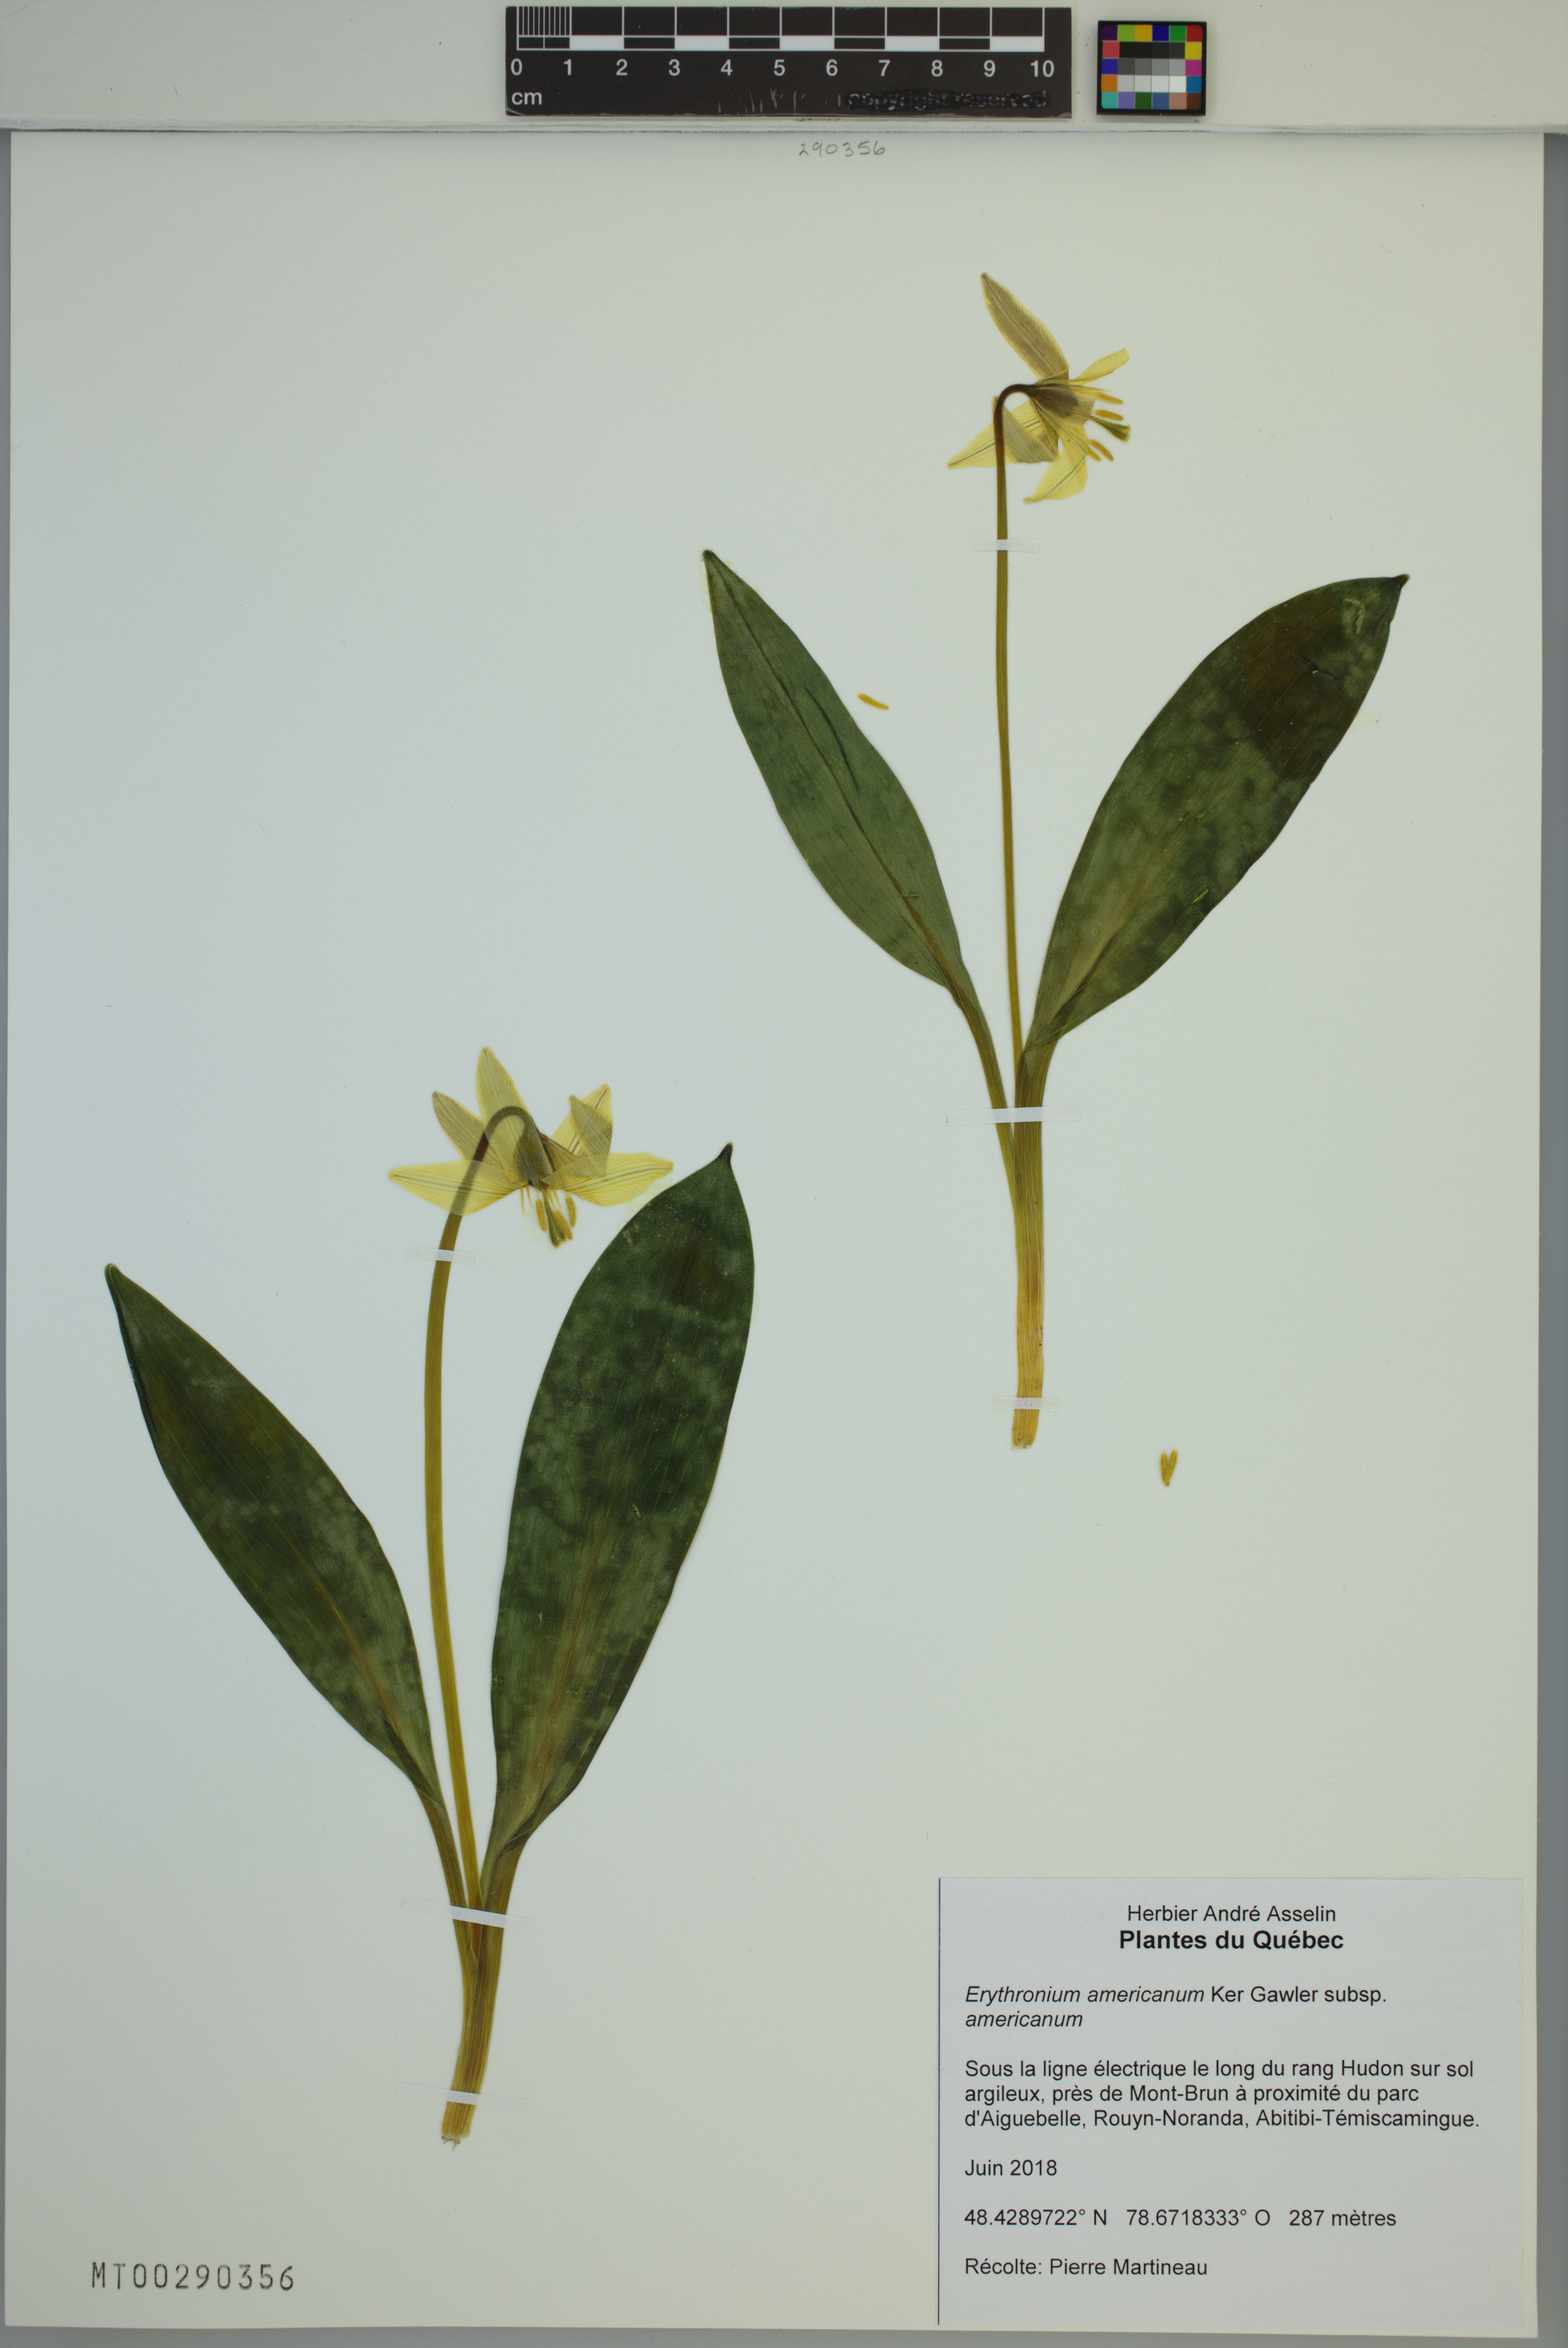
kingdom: Plantae
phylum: Tracheophyta
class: Liliopsida
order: Liliales
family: Liliaceae
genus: Erythronium
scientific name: Erythronium americanum
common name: Yellow adder's-tongue
